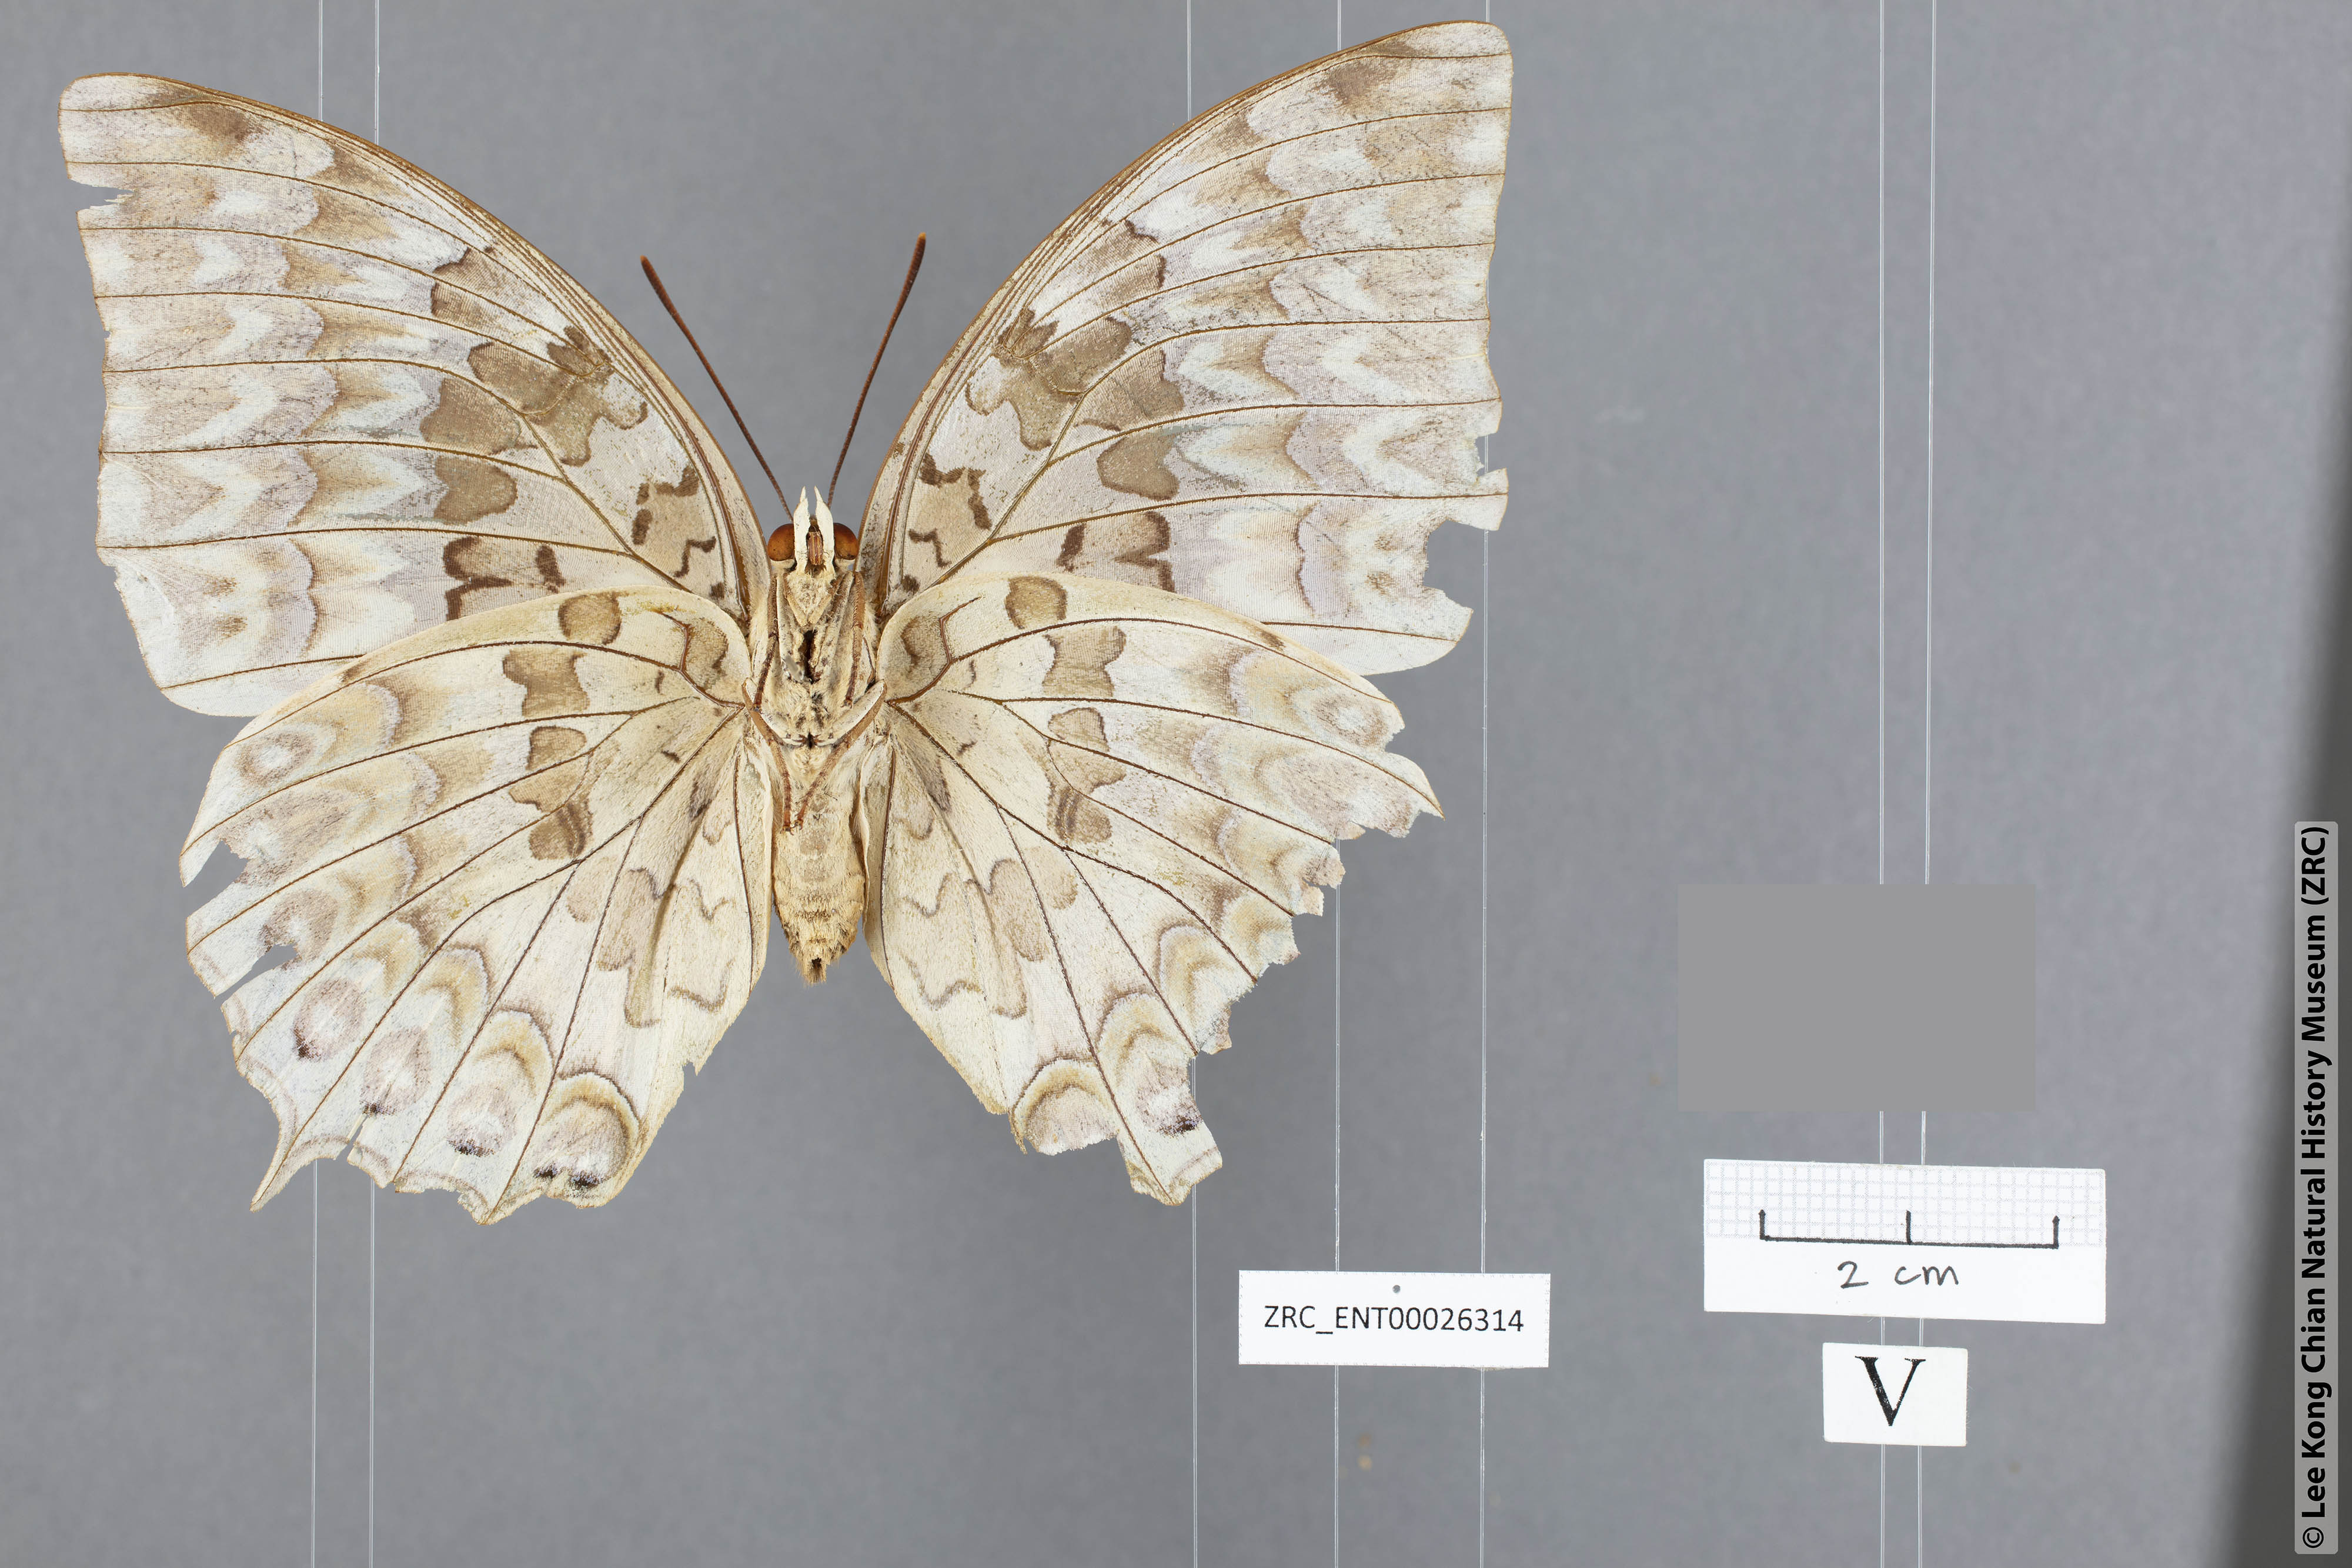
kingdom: Animalia
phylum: Arthropoda
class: Insecta
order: Lepidoptera
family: Nymphalidae
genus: Charaxes
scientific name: Charaxes durnfordi
